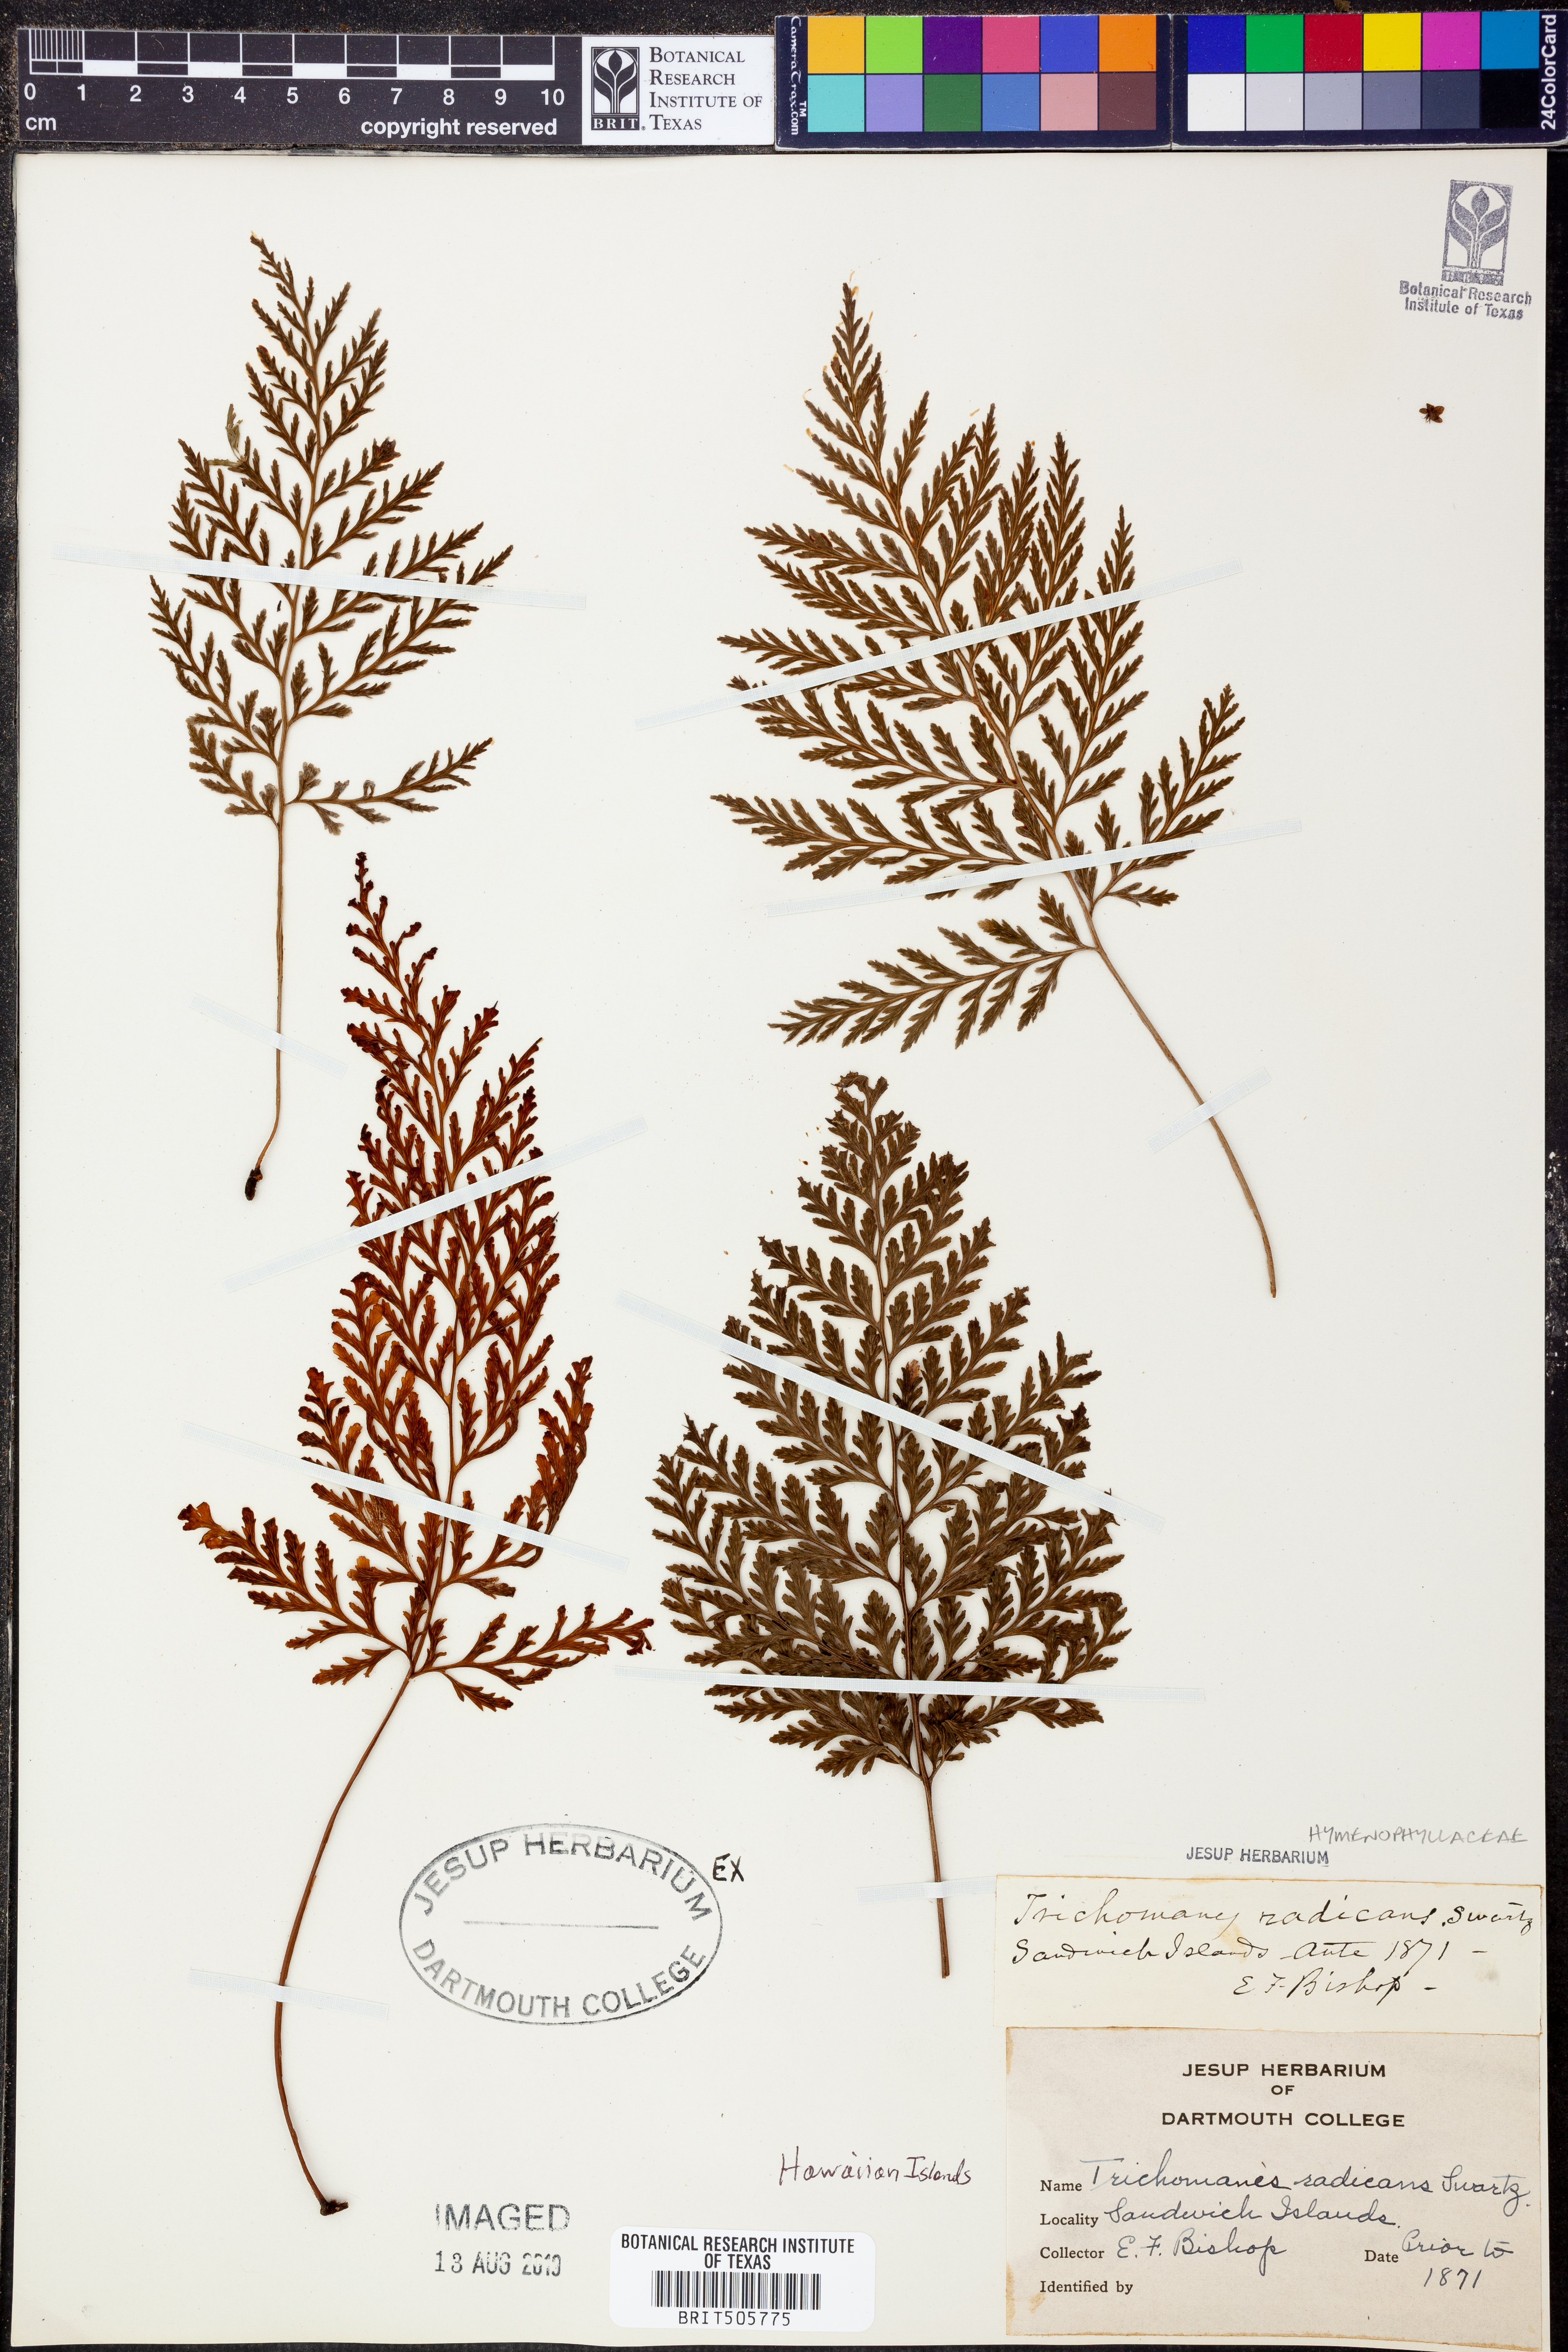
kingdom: Plantae
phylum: Tracheophyta
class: Polypodiopsida
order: Hymenophyllales
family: Hymenophyllaceae
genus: Vandenboschia
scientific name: Vandenboschia radicans
